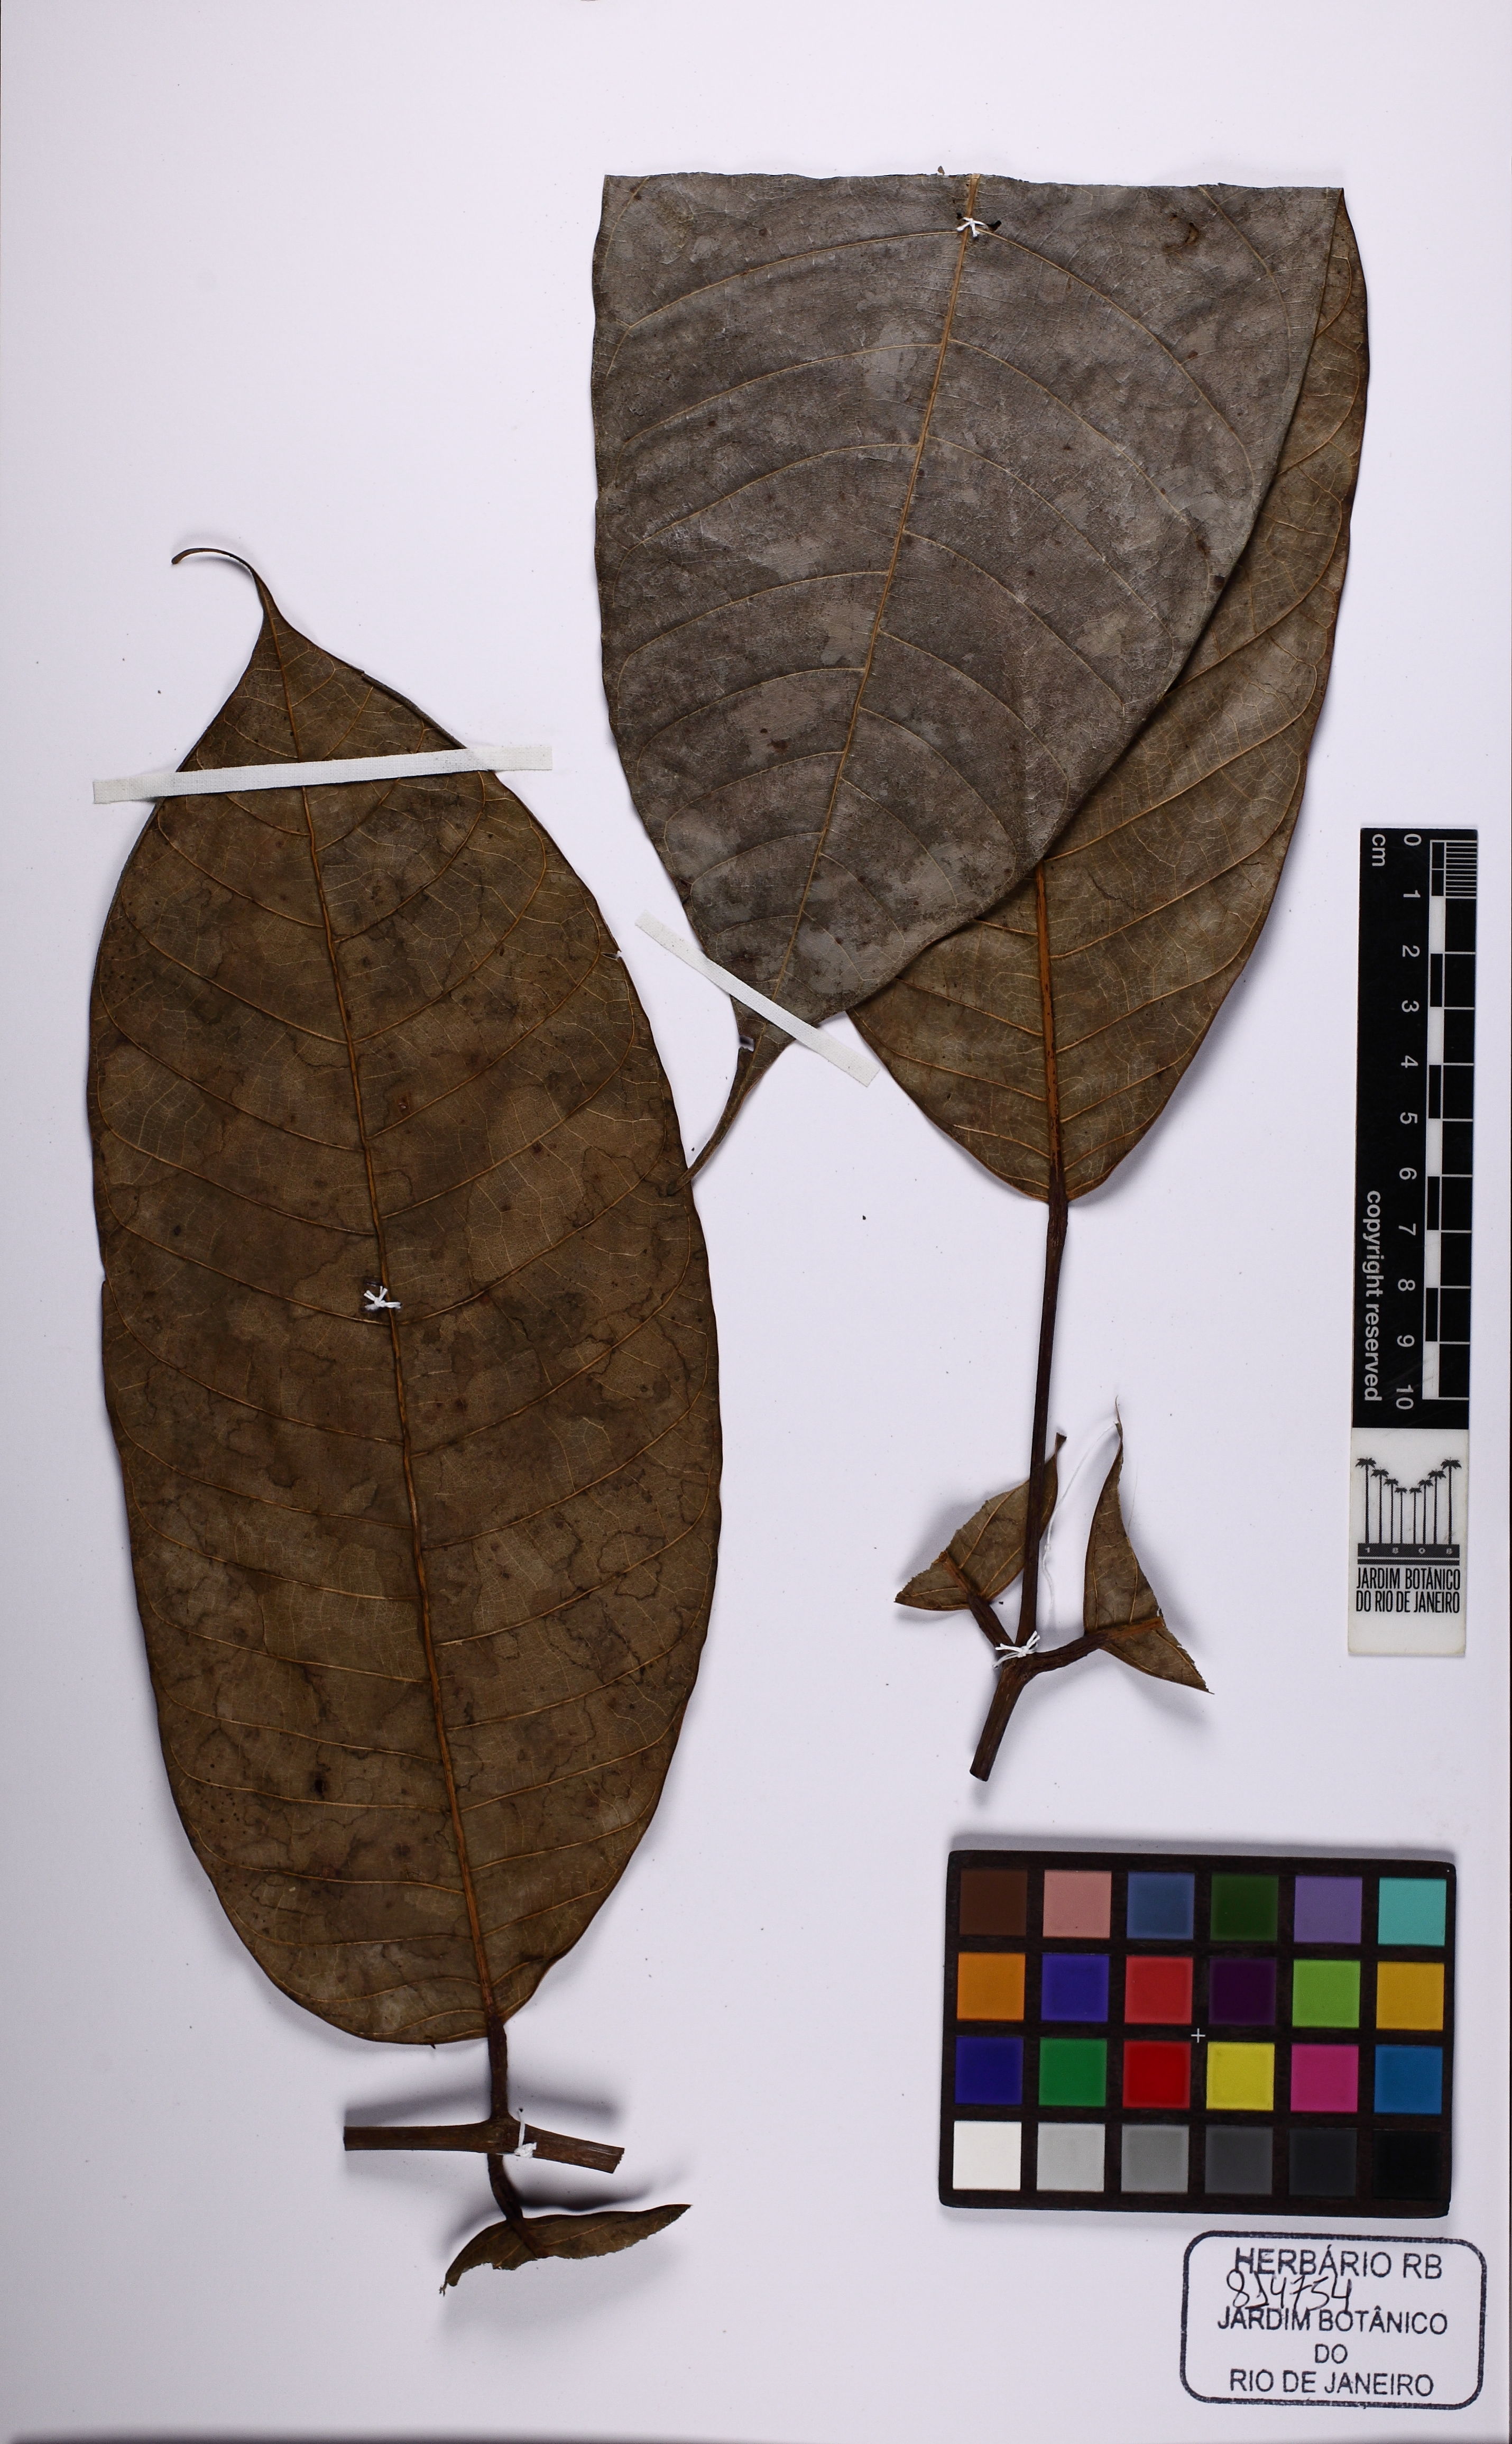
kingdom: Plantae
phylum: Tracheophyta
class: Magnoliopsida
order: Sapindales
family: Burseraceae
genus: Protium
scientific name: Protium warmingianum
